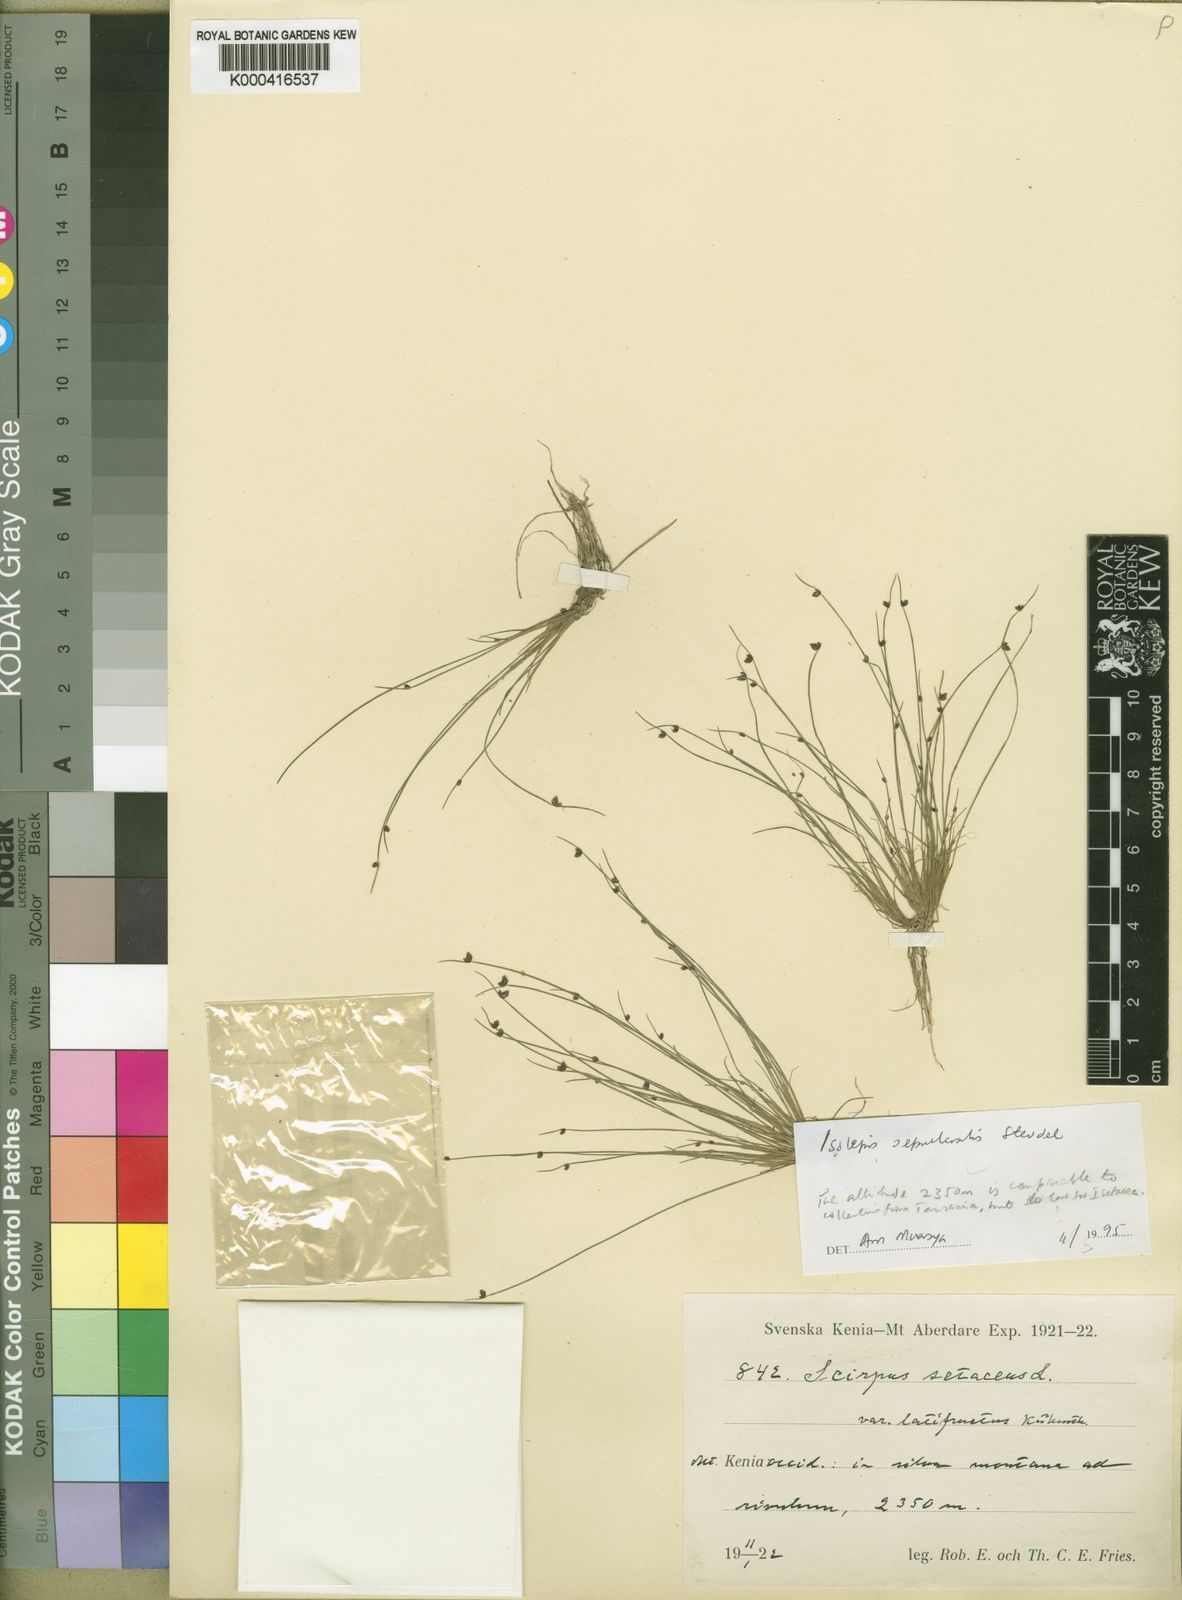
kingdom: Plantae
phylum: Tracheophyta
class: Liliopsida
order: Poales
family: Cyperaceae
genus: Isolepis
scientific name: Isolepis sepulcralis
